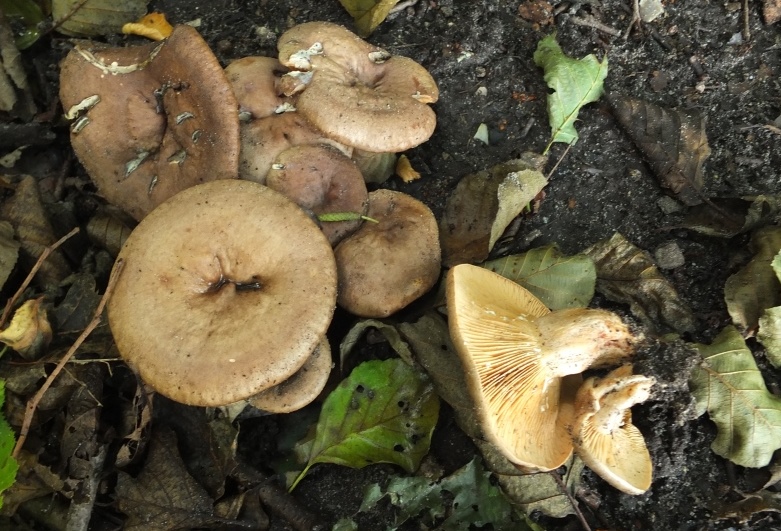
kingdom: Fungi
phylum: Basidiomycota
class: Agaricomycetes
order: Russulales
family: Russulaceae
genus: Lactarius
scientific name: Lactarius pyrogalus
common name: hassel-mælkehat
